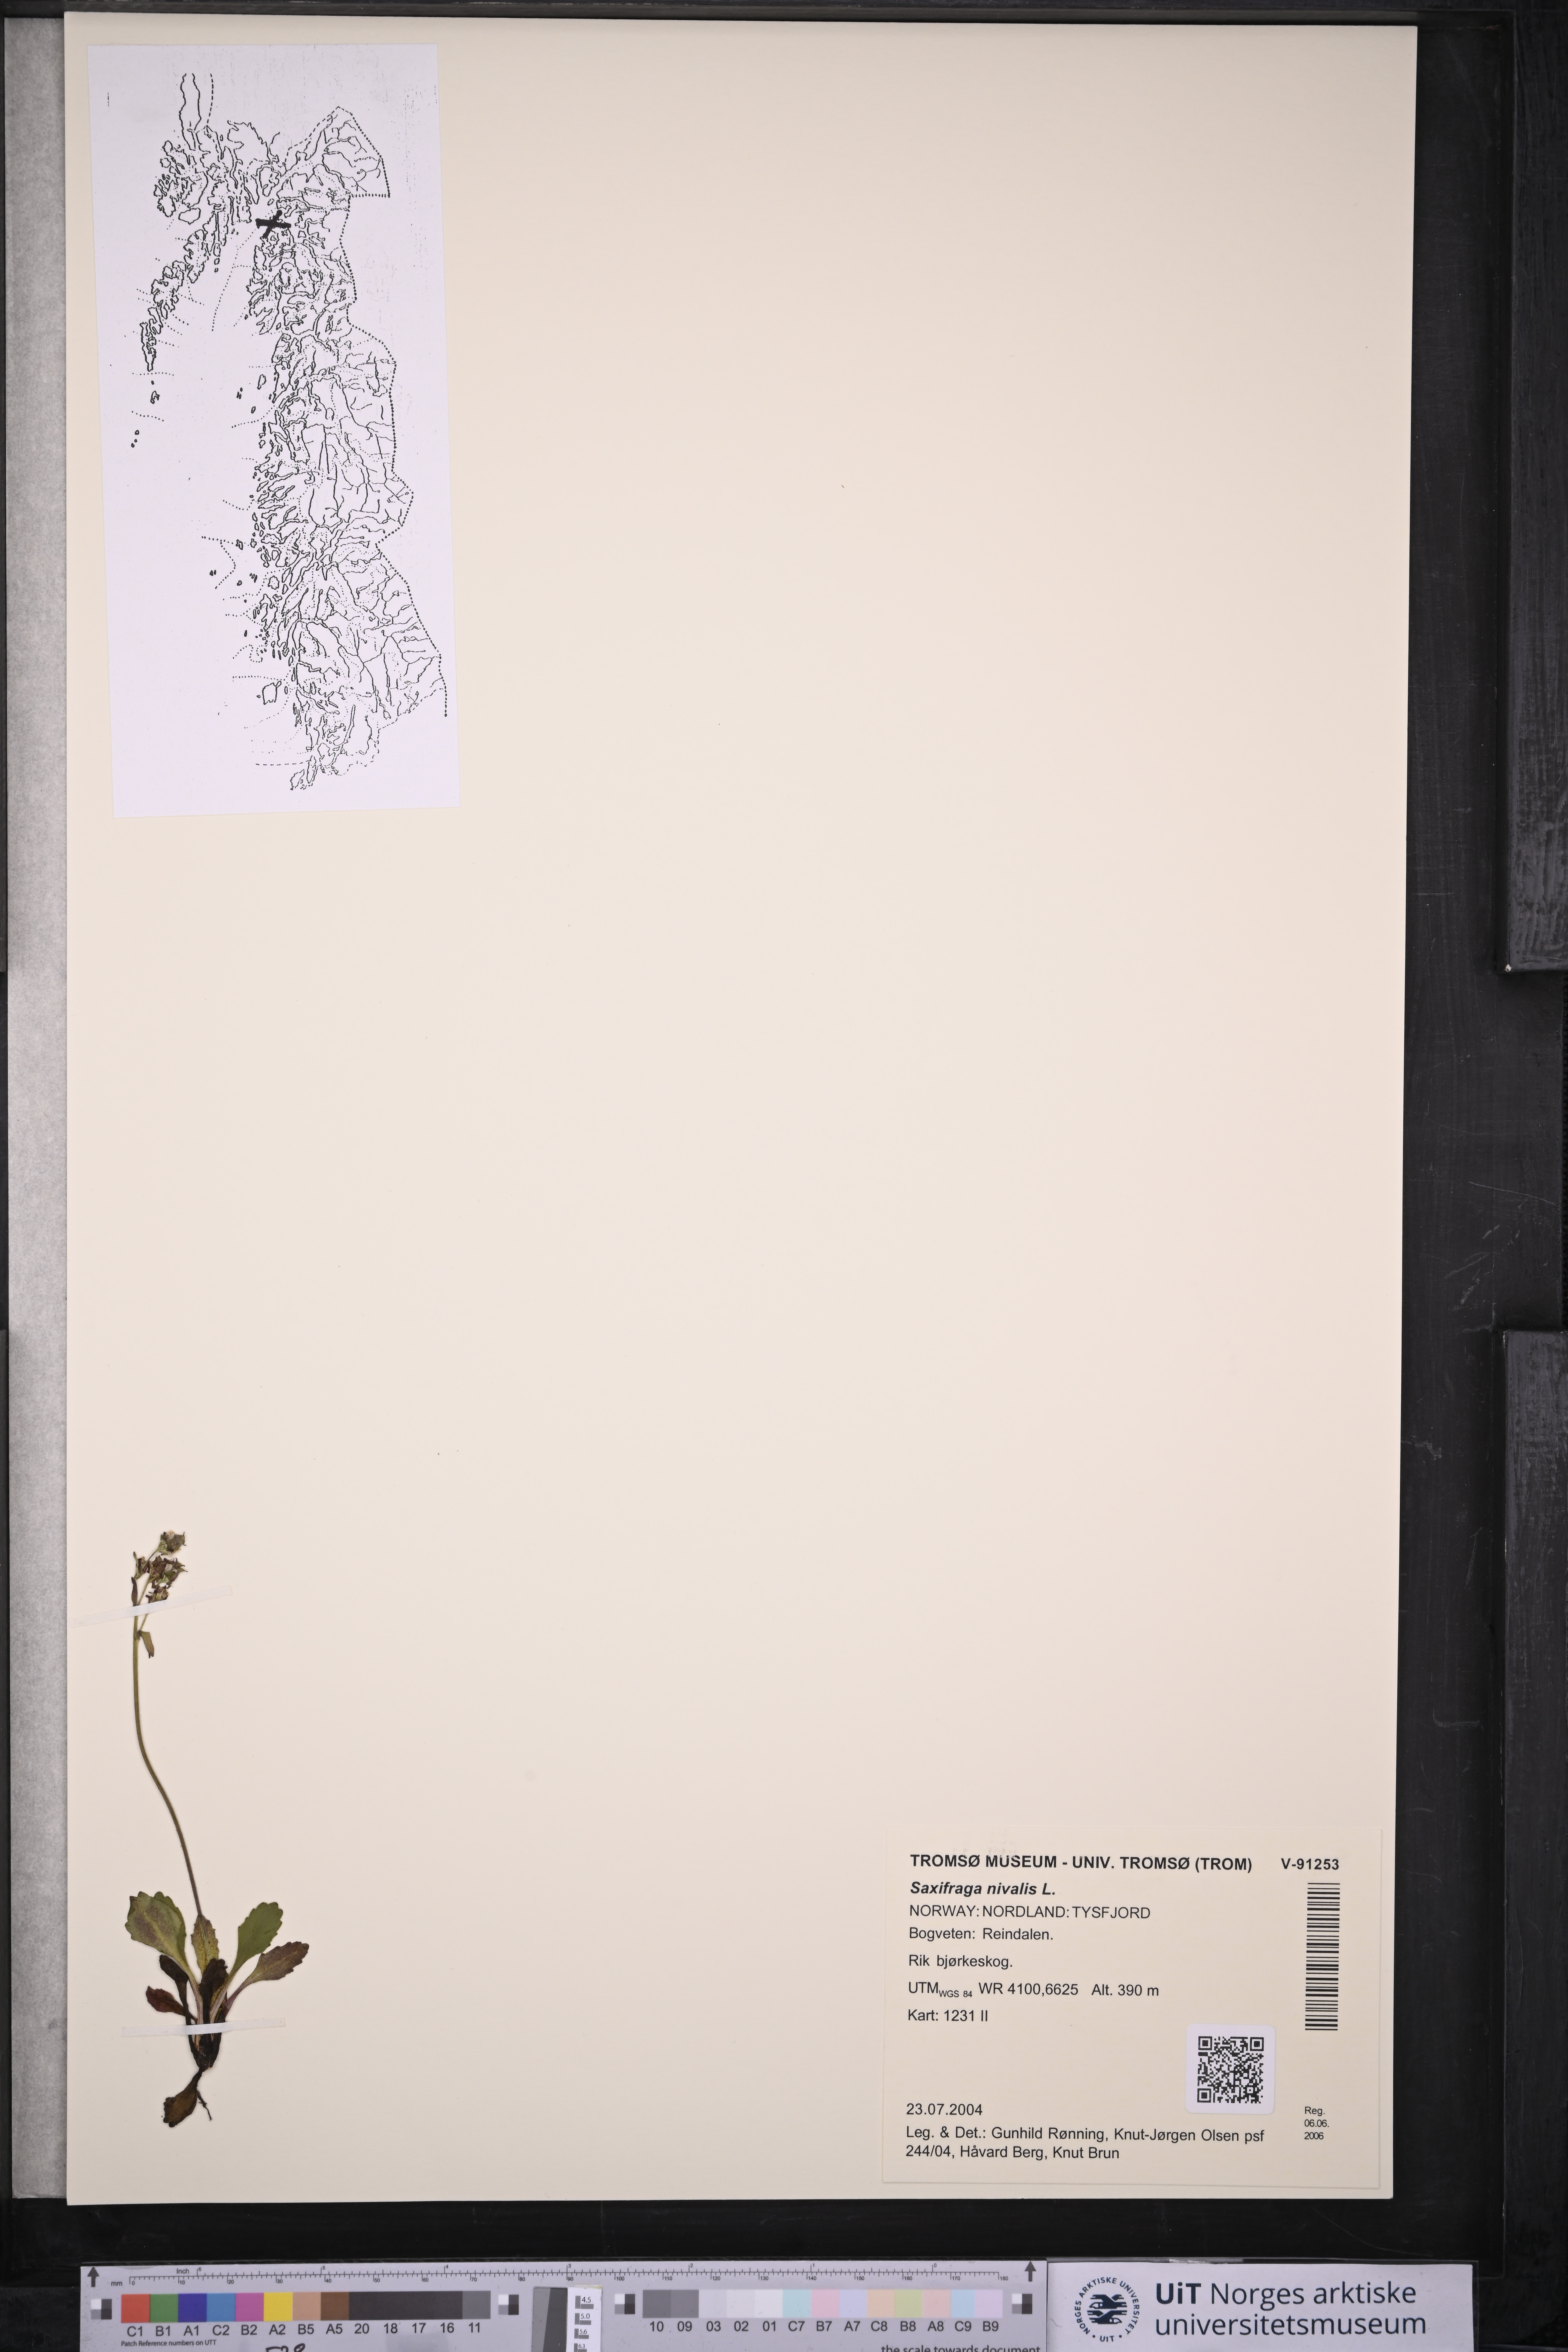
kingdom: Plantae
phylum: Tracheophyta
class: Magnoliopsida
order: Saxifragales
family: Saxifragaceae
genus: Micranthes
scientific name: Micranthes nivalis
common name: Alpine saxifrage
